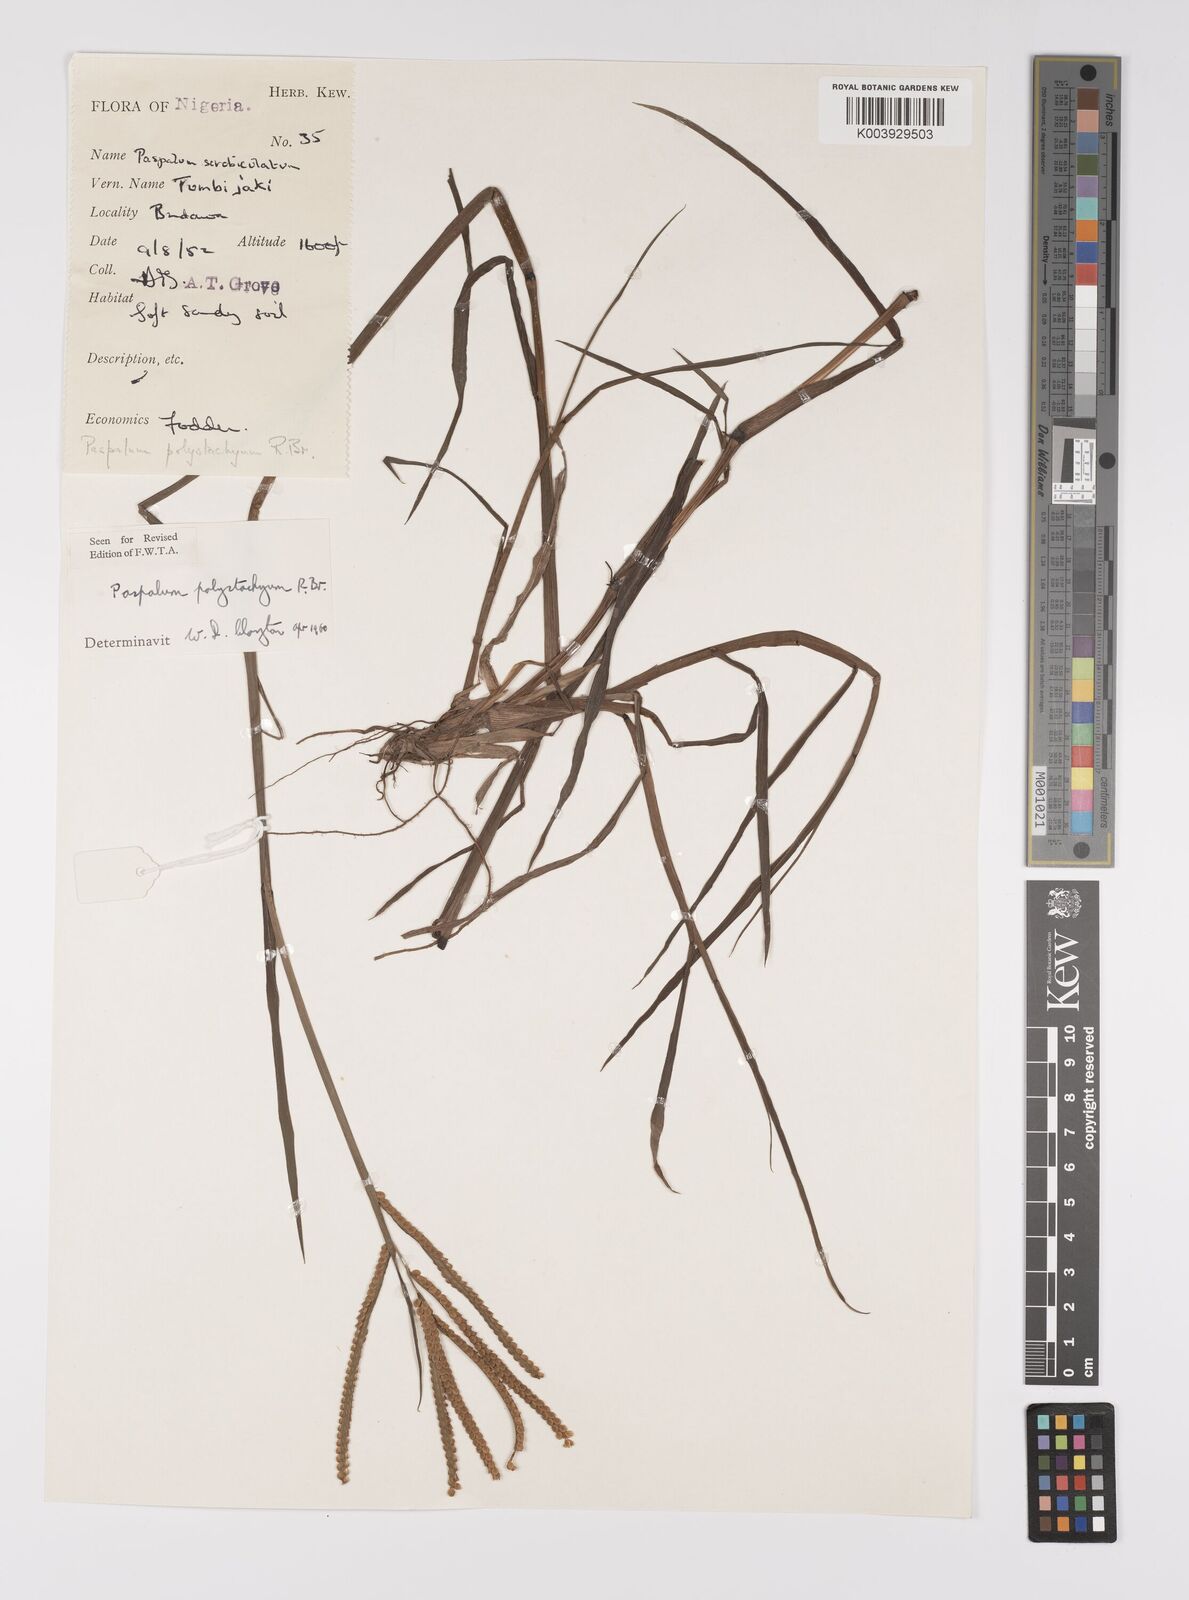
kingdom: Plantae
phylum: Tracheophyta
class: Liliopsida
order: Poales
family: Poaceae
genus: Paspalum
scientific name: Paspalum scrobiculatum
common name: Kodo millet
